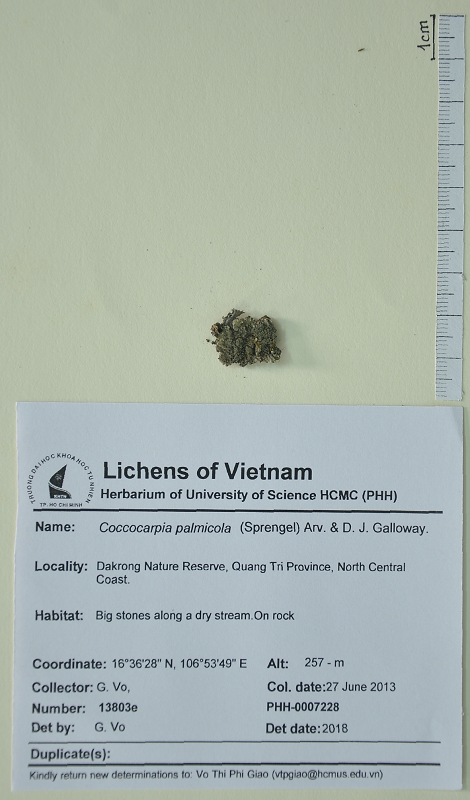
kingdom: Fungi
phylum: Ascomycota
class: Lecanoromycetes
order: Peltigerales
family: Coccocarpiaceae
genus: Coccocarpia
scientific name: Coccocarpia palmicola
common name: Salted shell lichen
